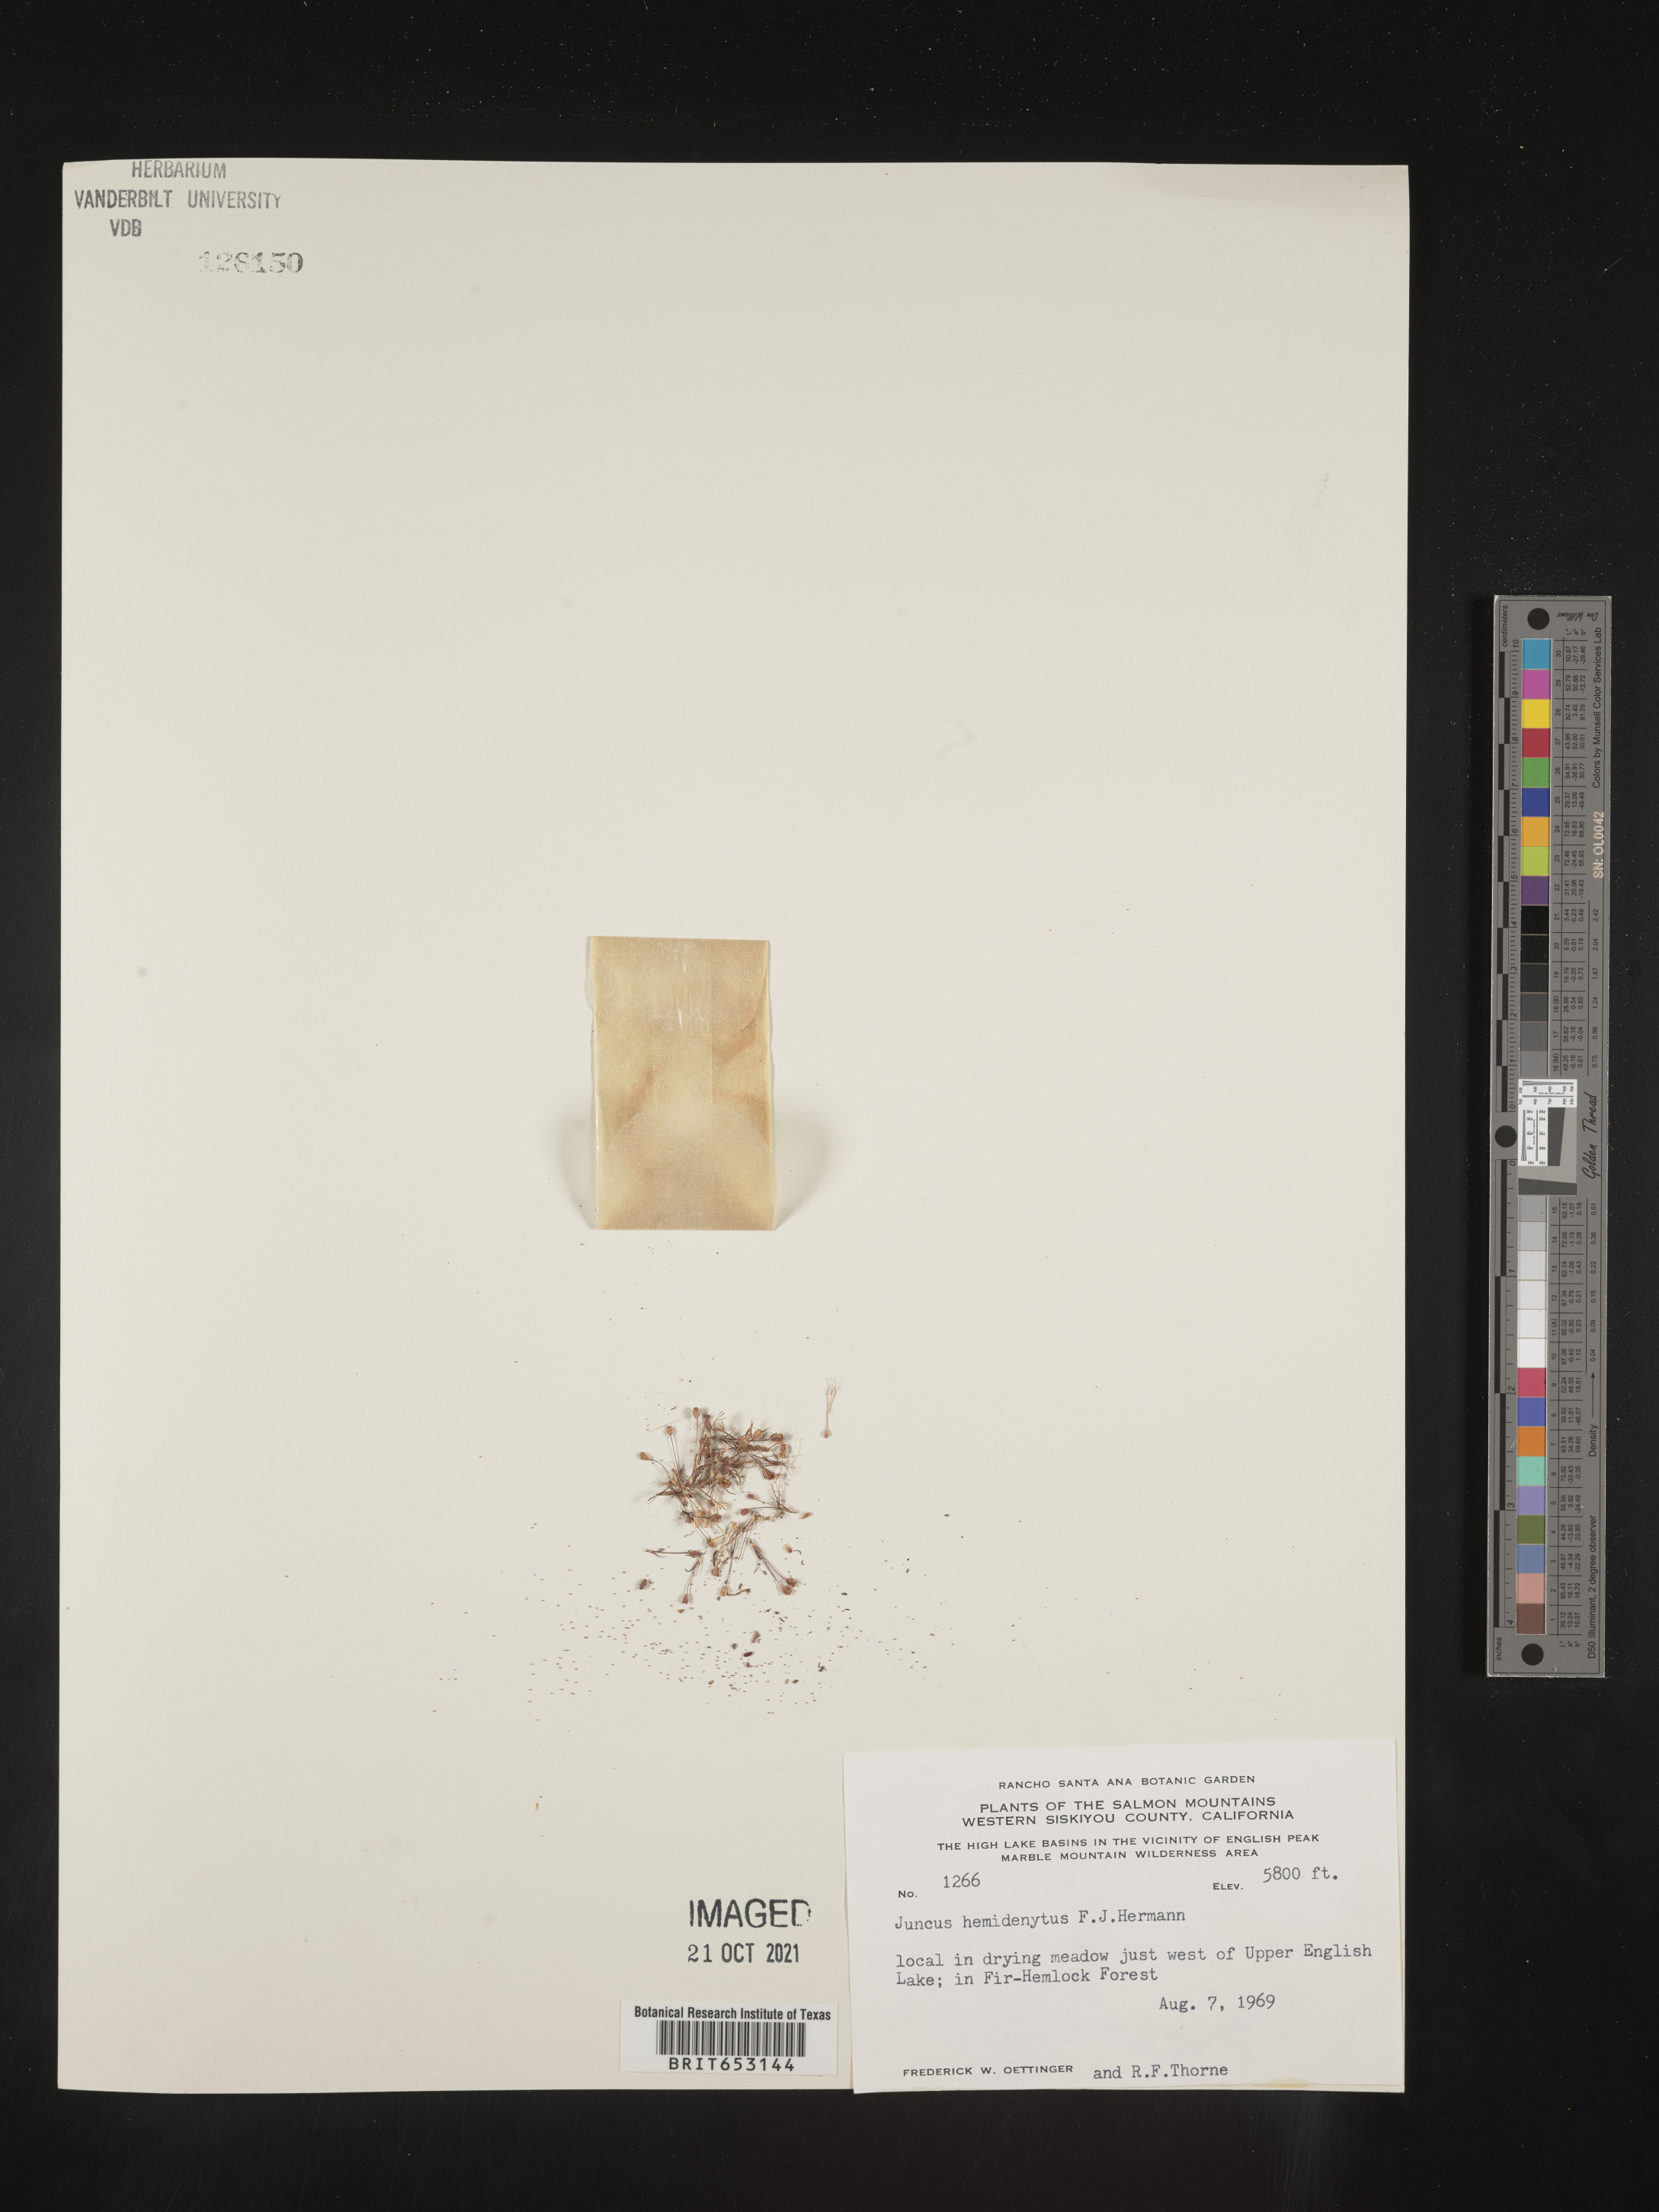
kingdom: Plantae
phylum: Tracheophyta
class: Liliopsida
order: Poales
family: Juncaceae
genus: Juncus
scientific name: Juncus hemiendytus
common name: Hermann's dwarf rush
